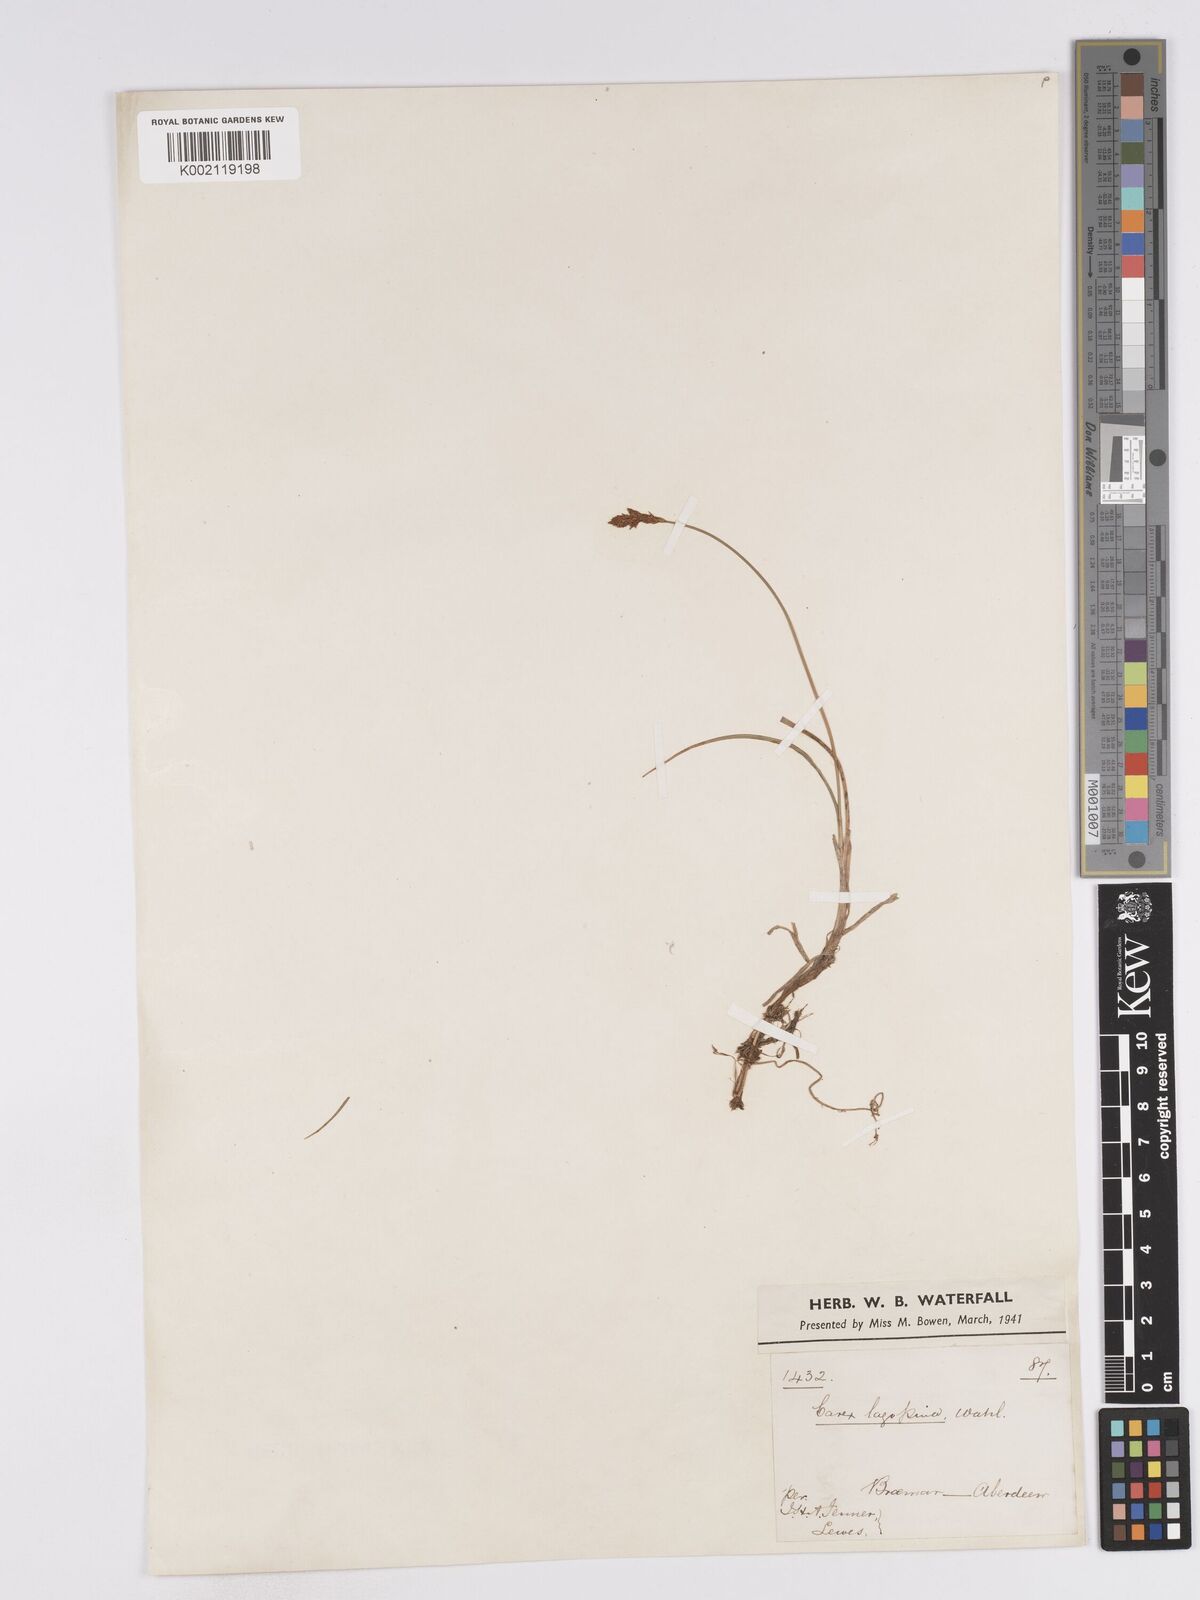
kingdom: Plantae
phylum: Tracheophyta
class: Liliopsida
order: Poales
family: Cyperaceae
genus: Carex
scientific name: Carex lachenalii
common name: Hare's-foot sedge
